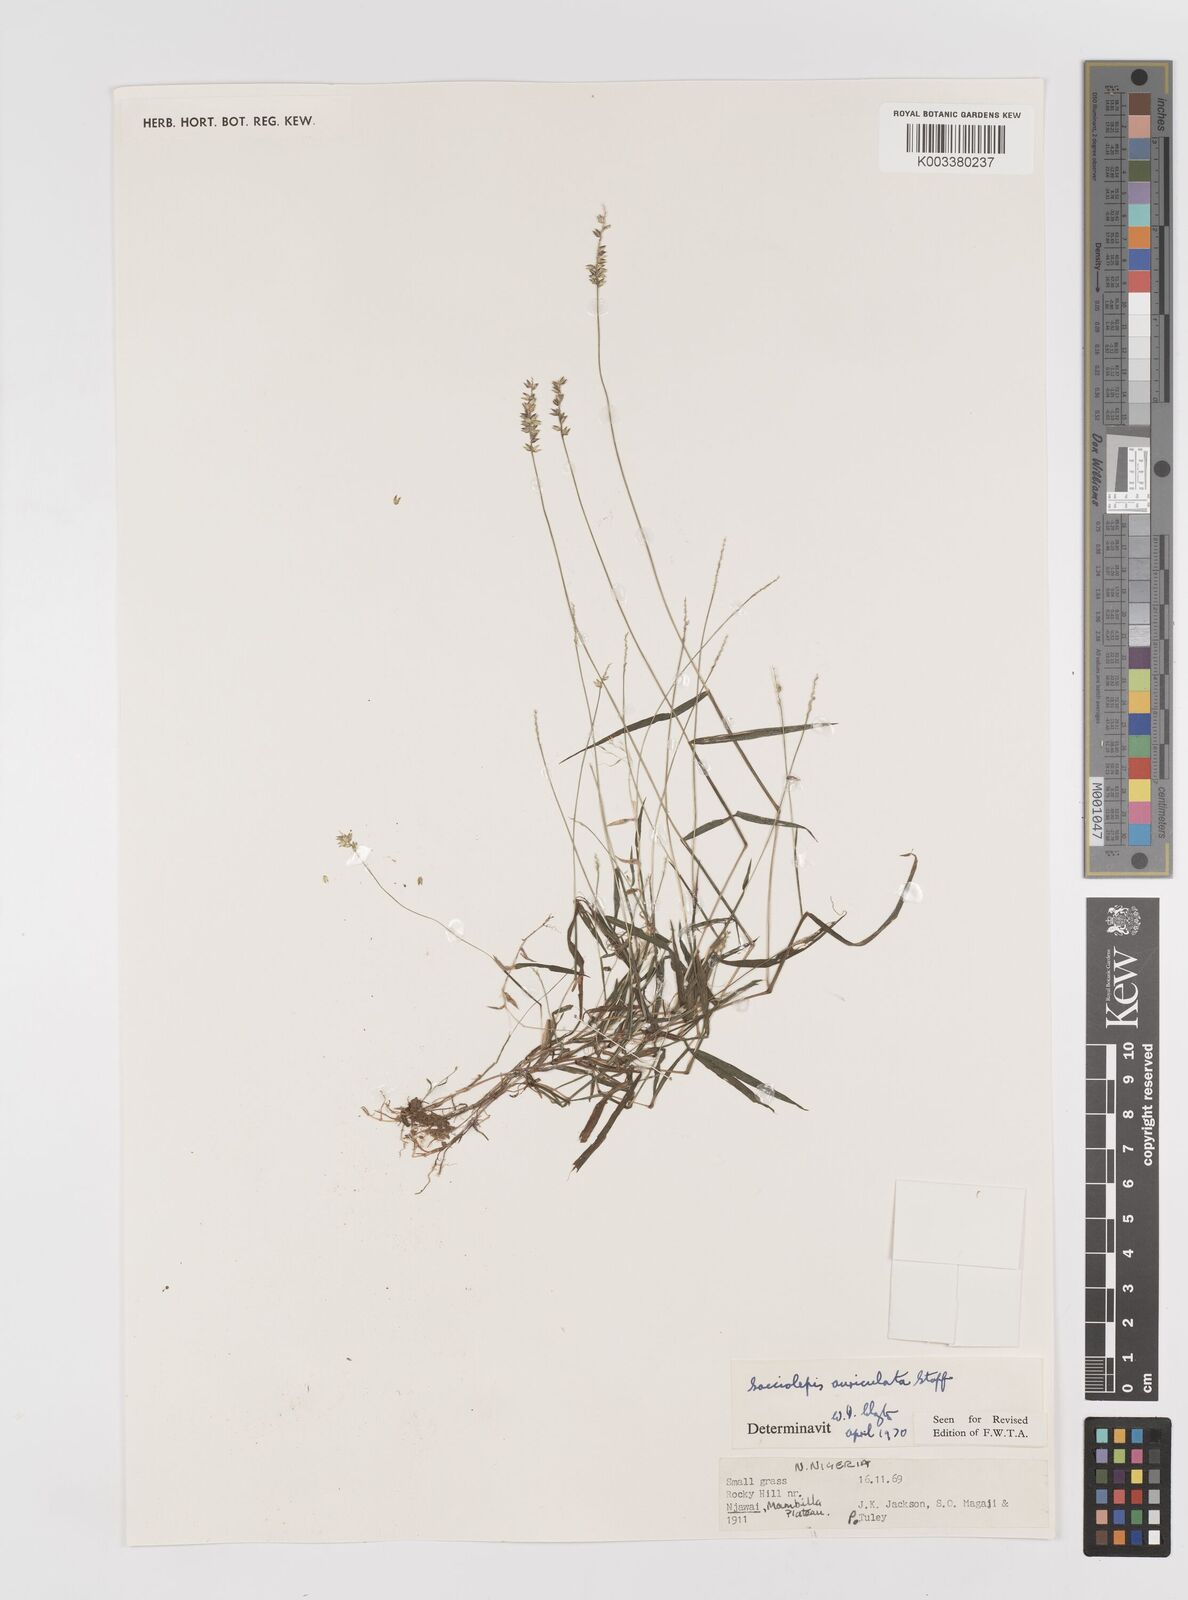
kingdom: Plantae
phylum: Tracheophyta
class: Liliopsida
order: Poales
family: Poaceae
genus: Sacciolepis
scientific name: Sacciolepis indica
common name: Glenwoodgrass
